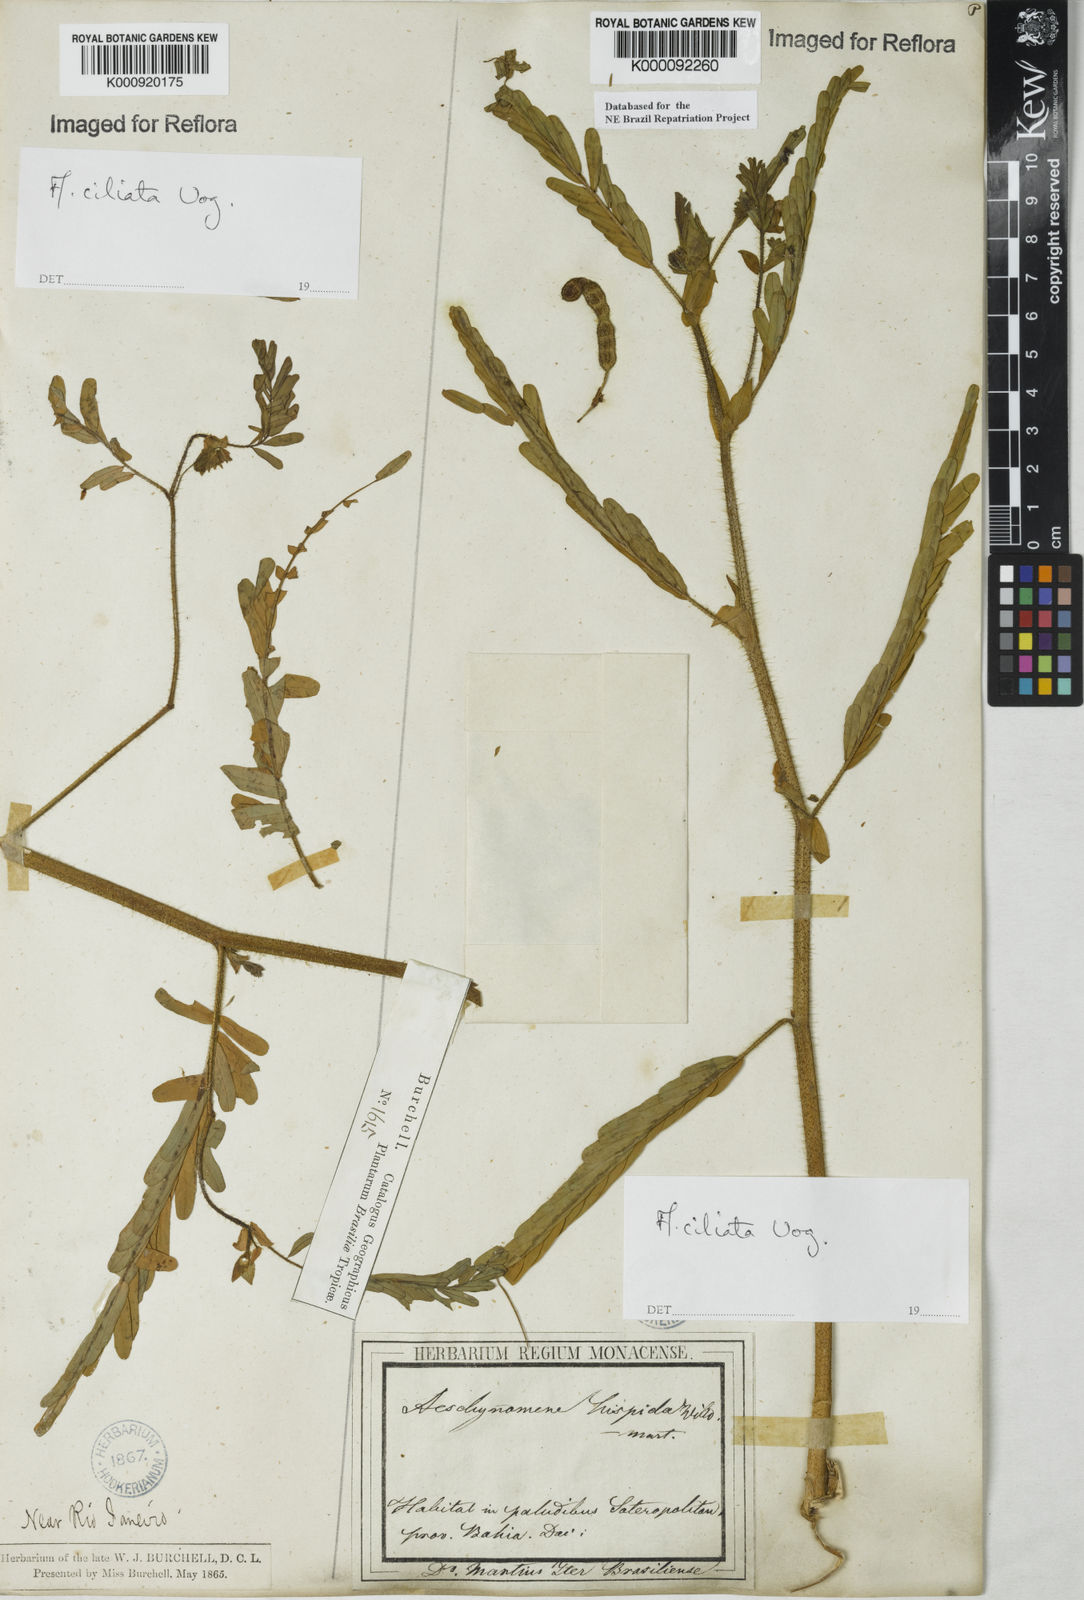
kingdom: Plantae
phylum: Tracheophyta
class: Magnoliopsida
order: Fabales
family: Fabaceae
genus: Aeschynomene
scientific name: Aeschynomene ciliata
